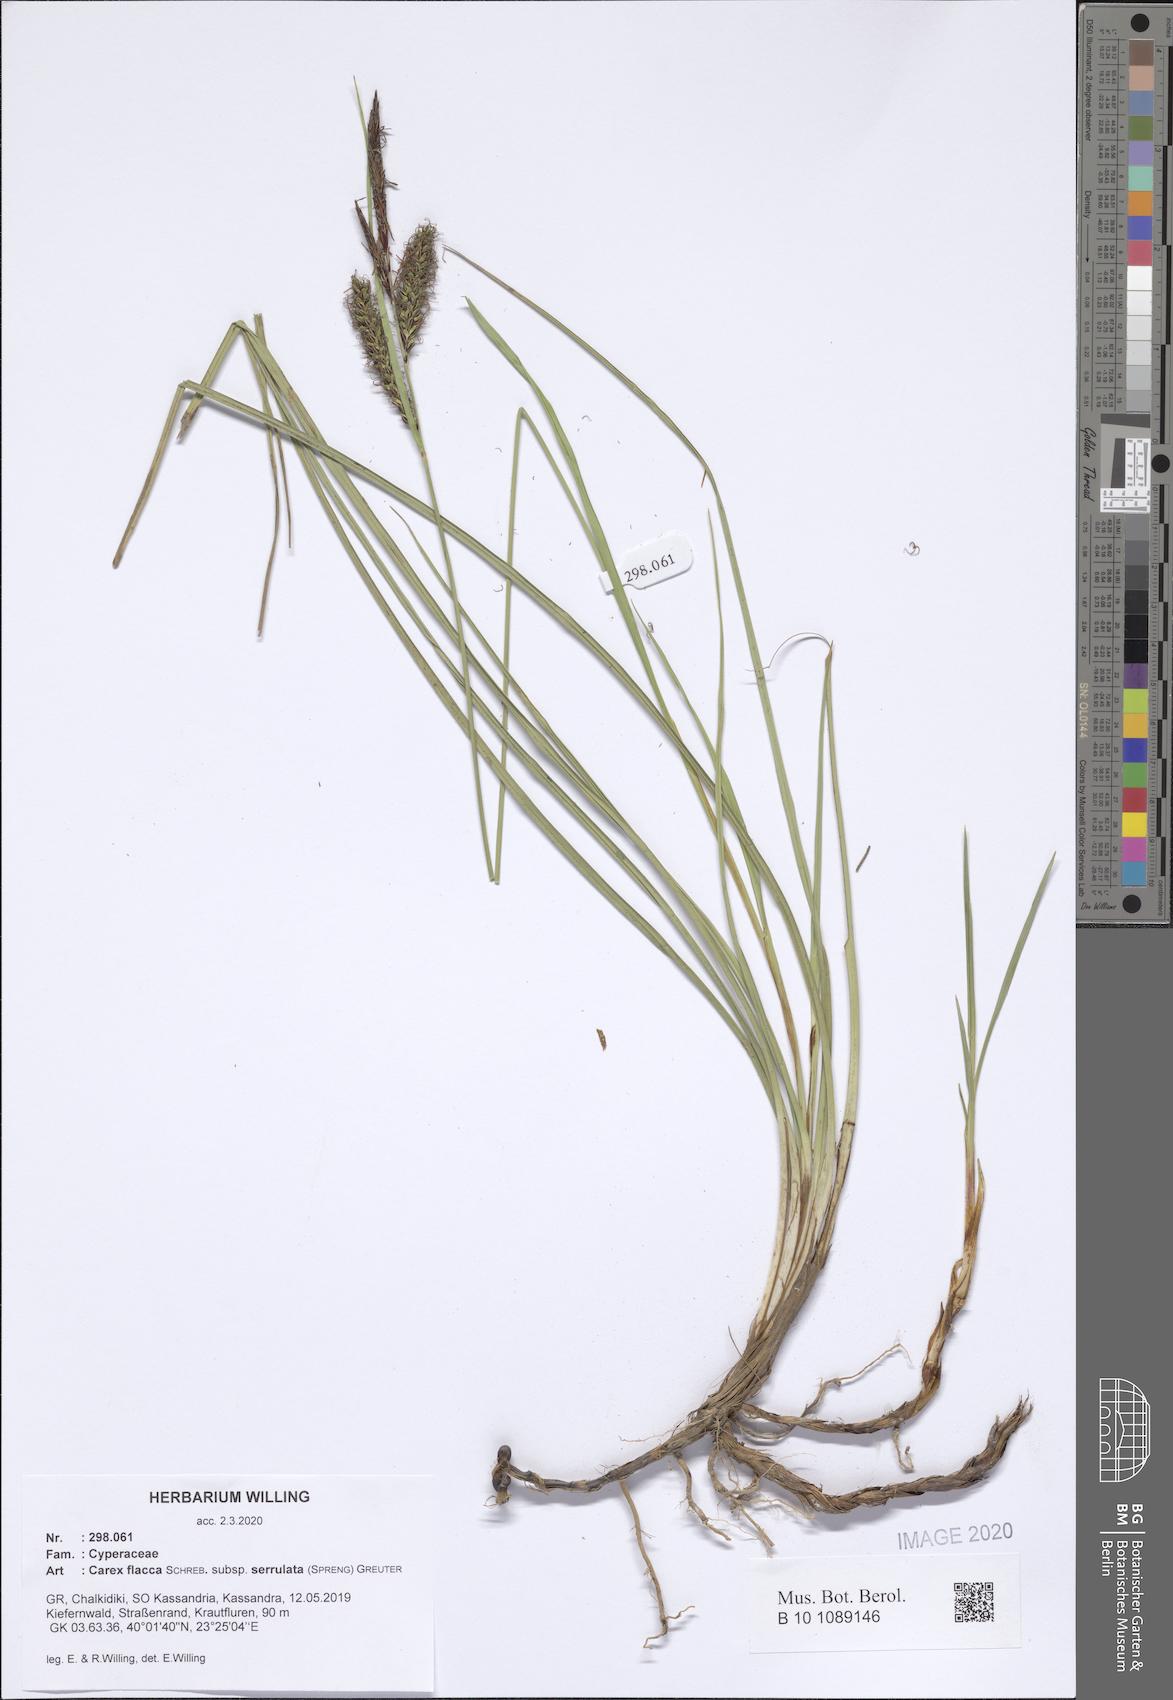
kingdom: Plantae
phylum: Tracheophyta
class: Liliopsida
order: Poales
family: Cyperaceae
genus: Carex
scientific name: Carex flacca
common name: Glaucous sedge
